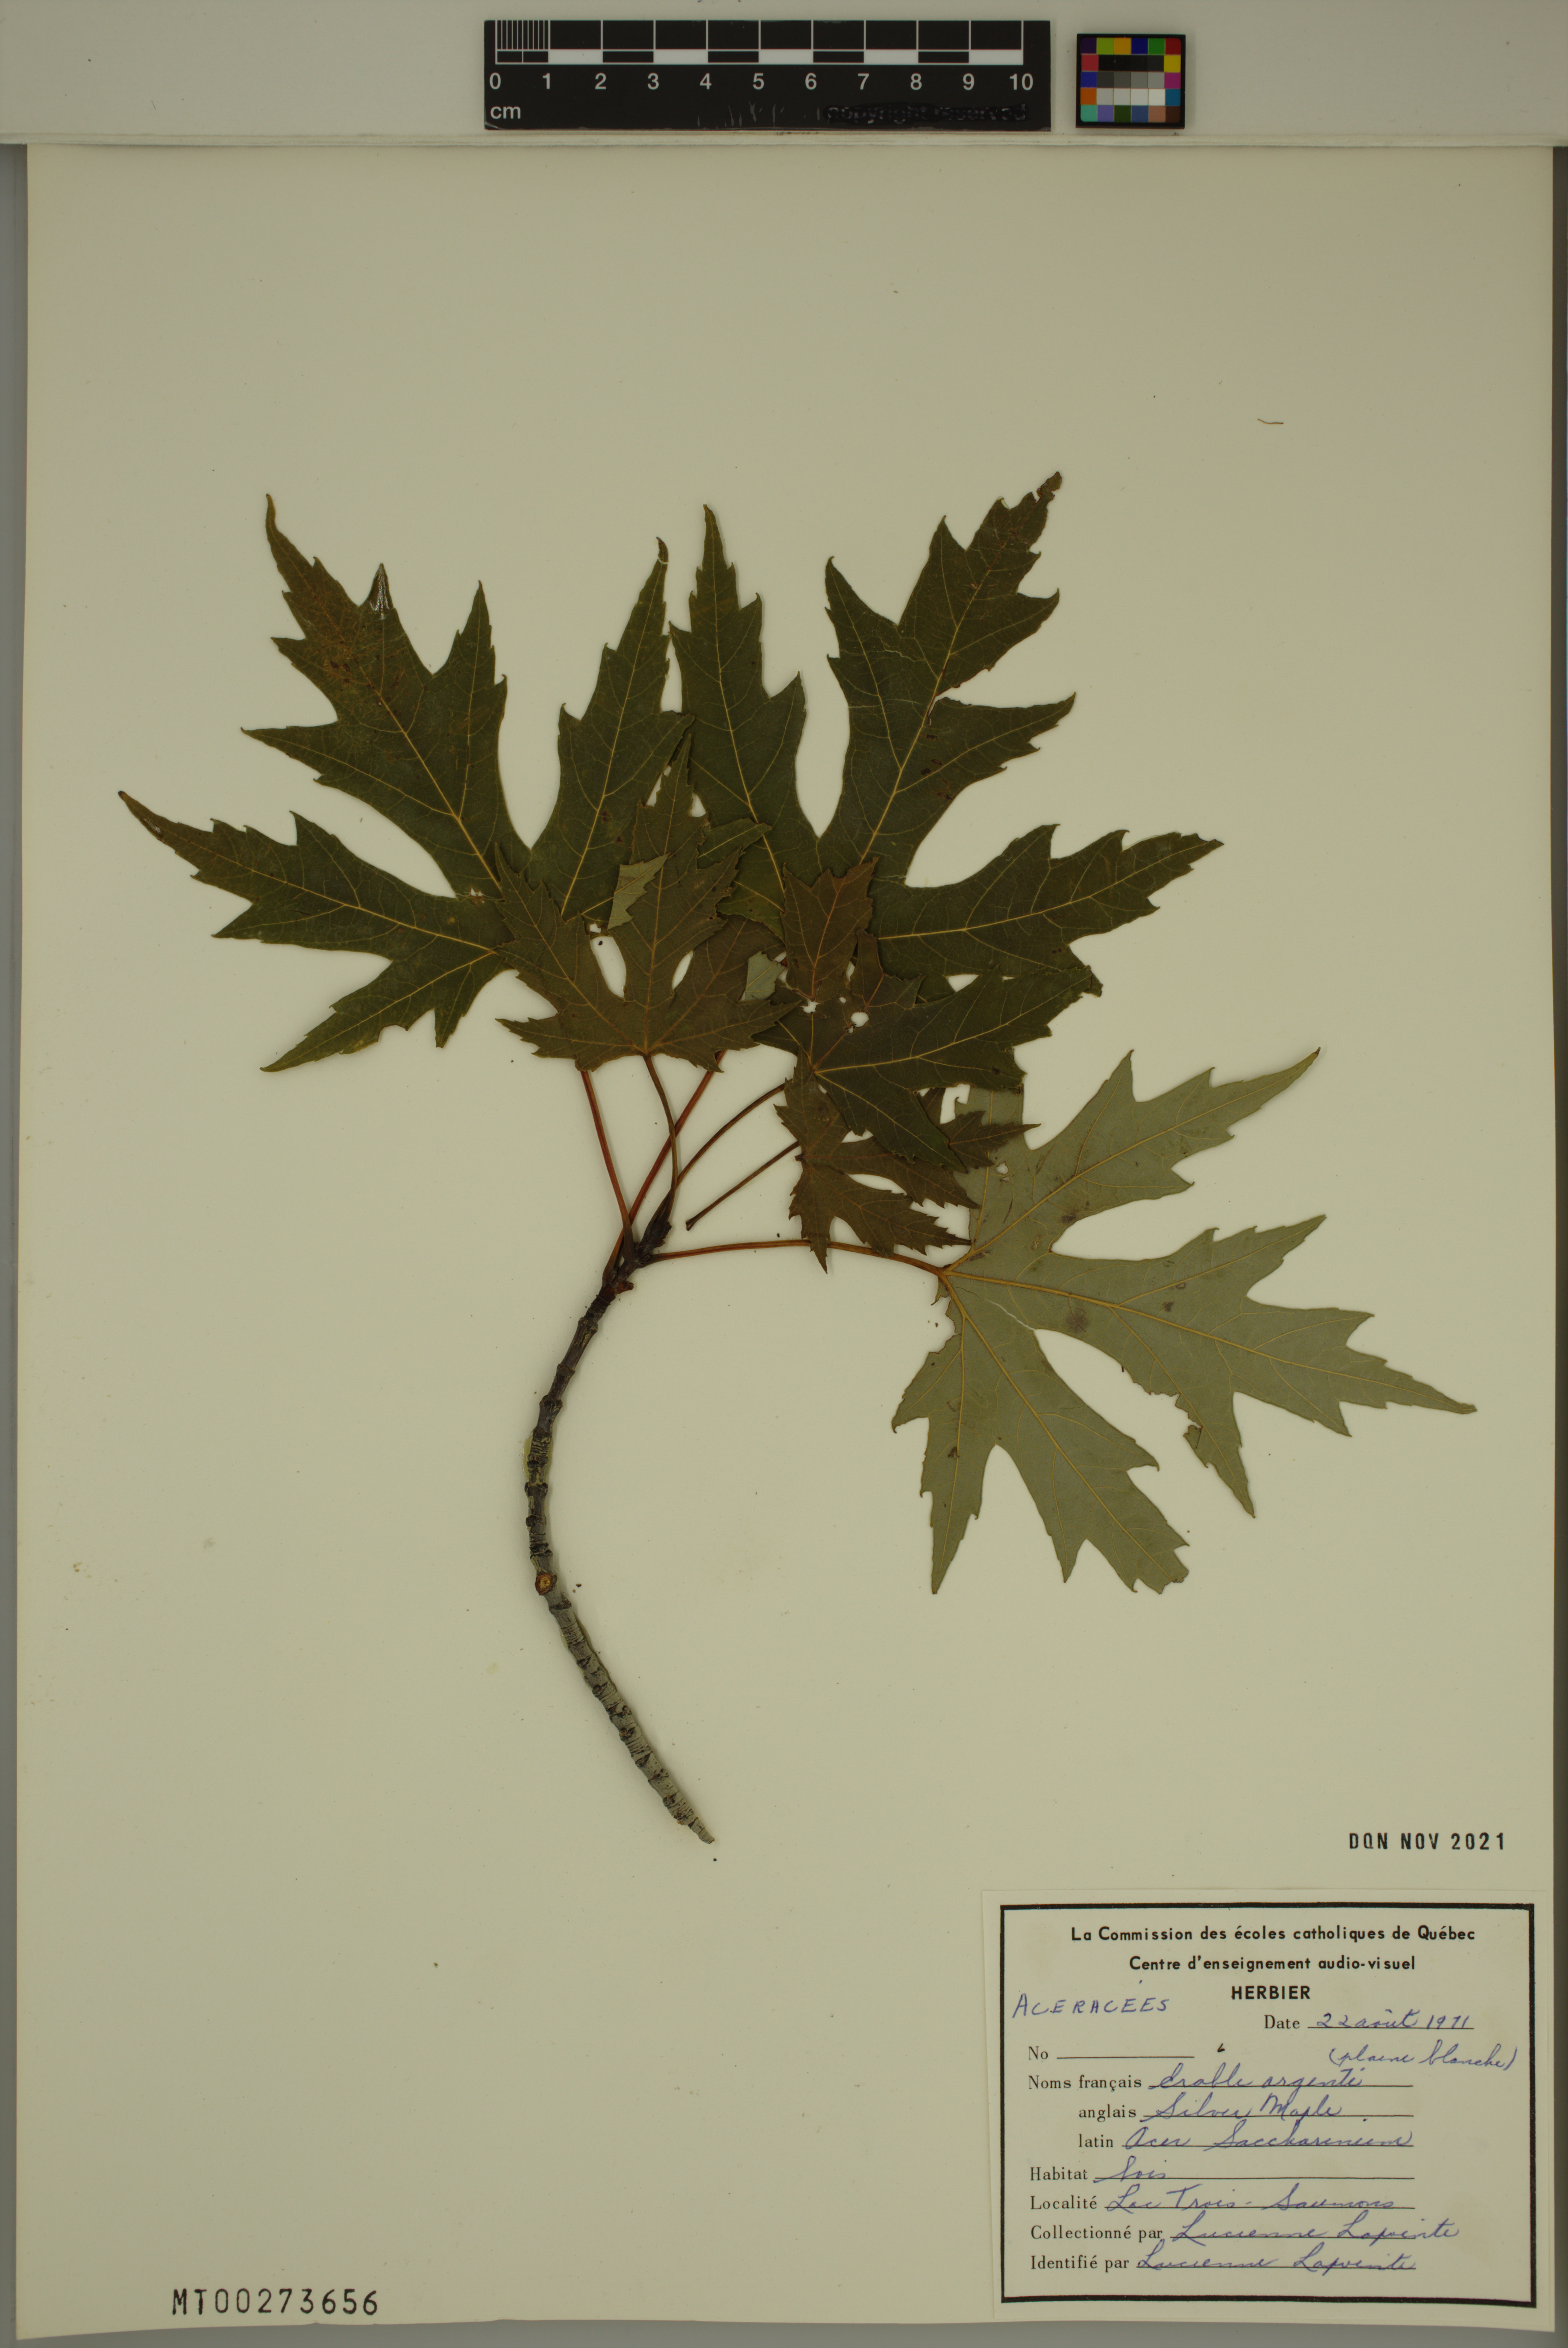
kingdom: Plantae
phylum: Tracheophyta
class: Magnoliopsida
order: Sapindales
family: Sapindaceae
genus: Acer
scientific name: Acer saccharinum
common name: Silver maple
